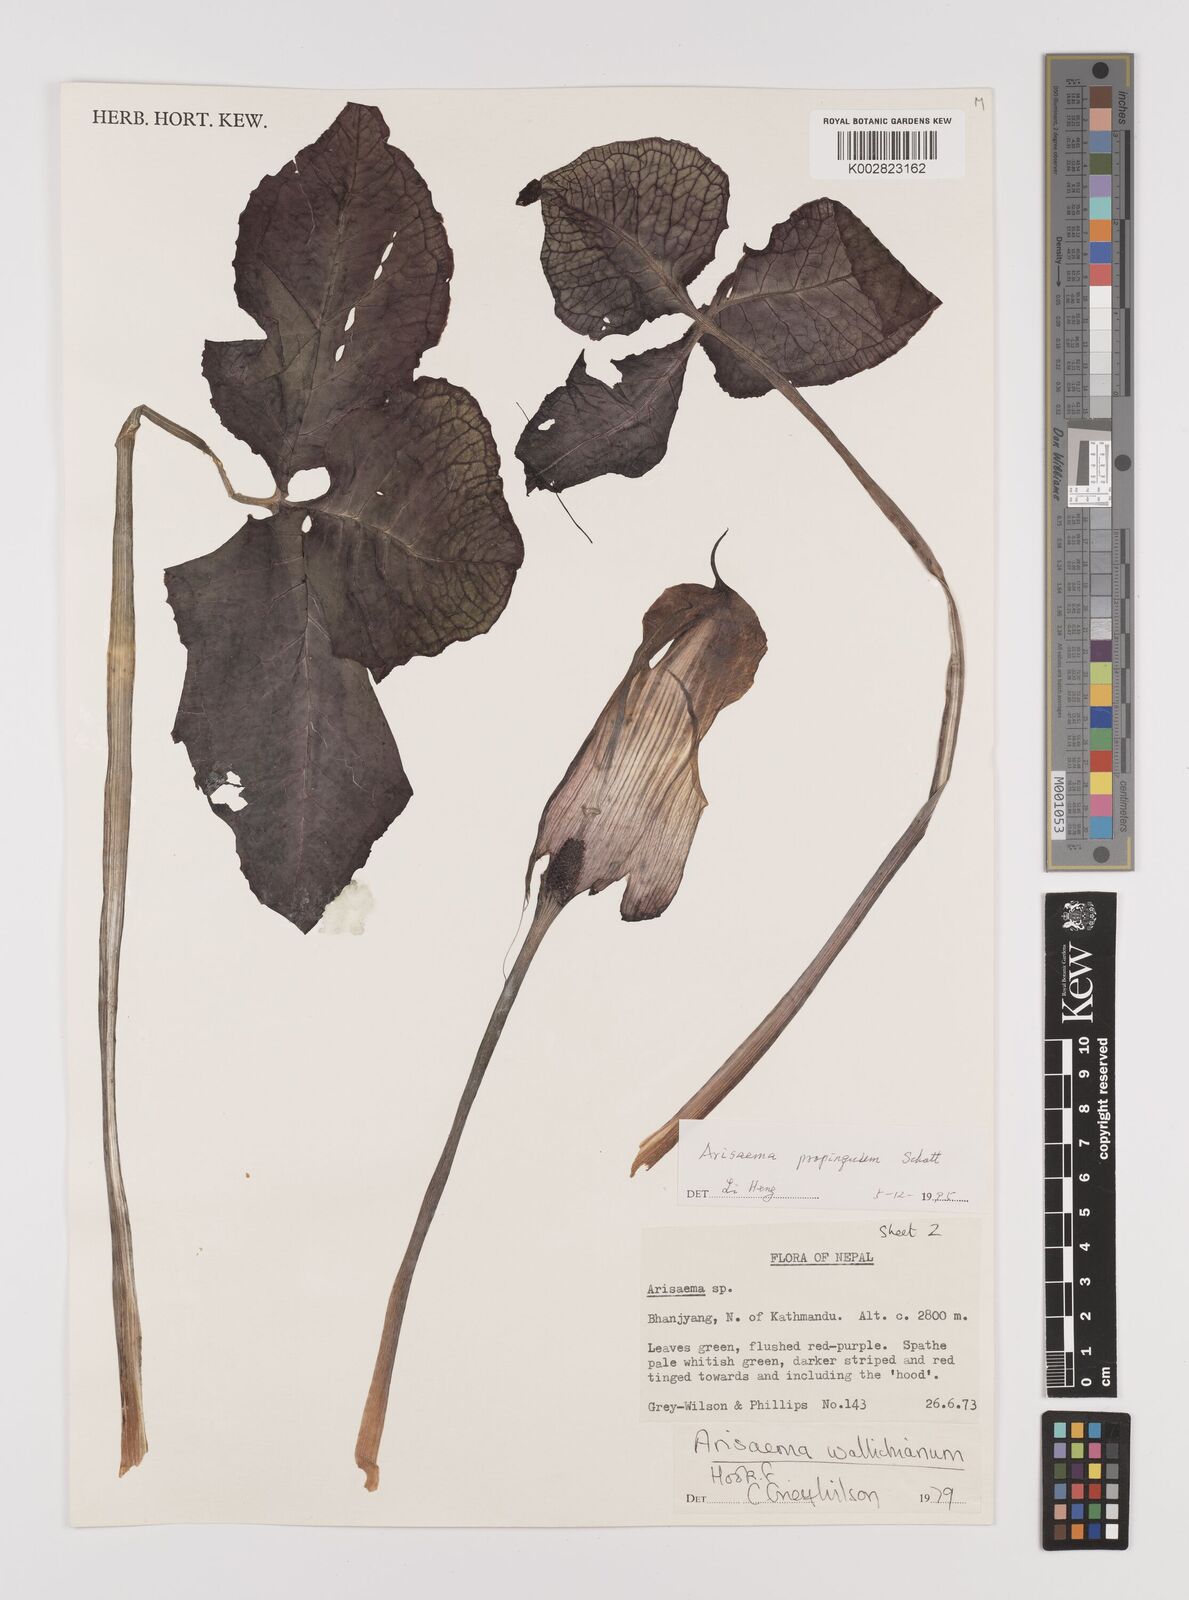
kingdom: Plantae
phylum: Tracheophyta
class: Liliopsida
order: Alismatales
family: Araceae
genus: Arisaema
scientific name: Arisaema propinquum
